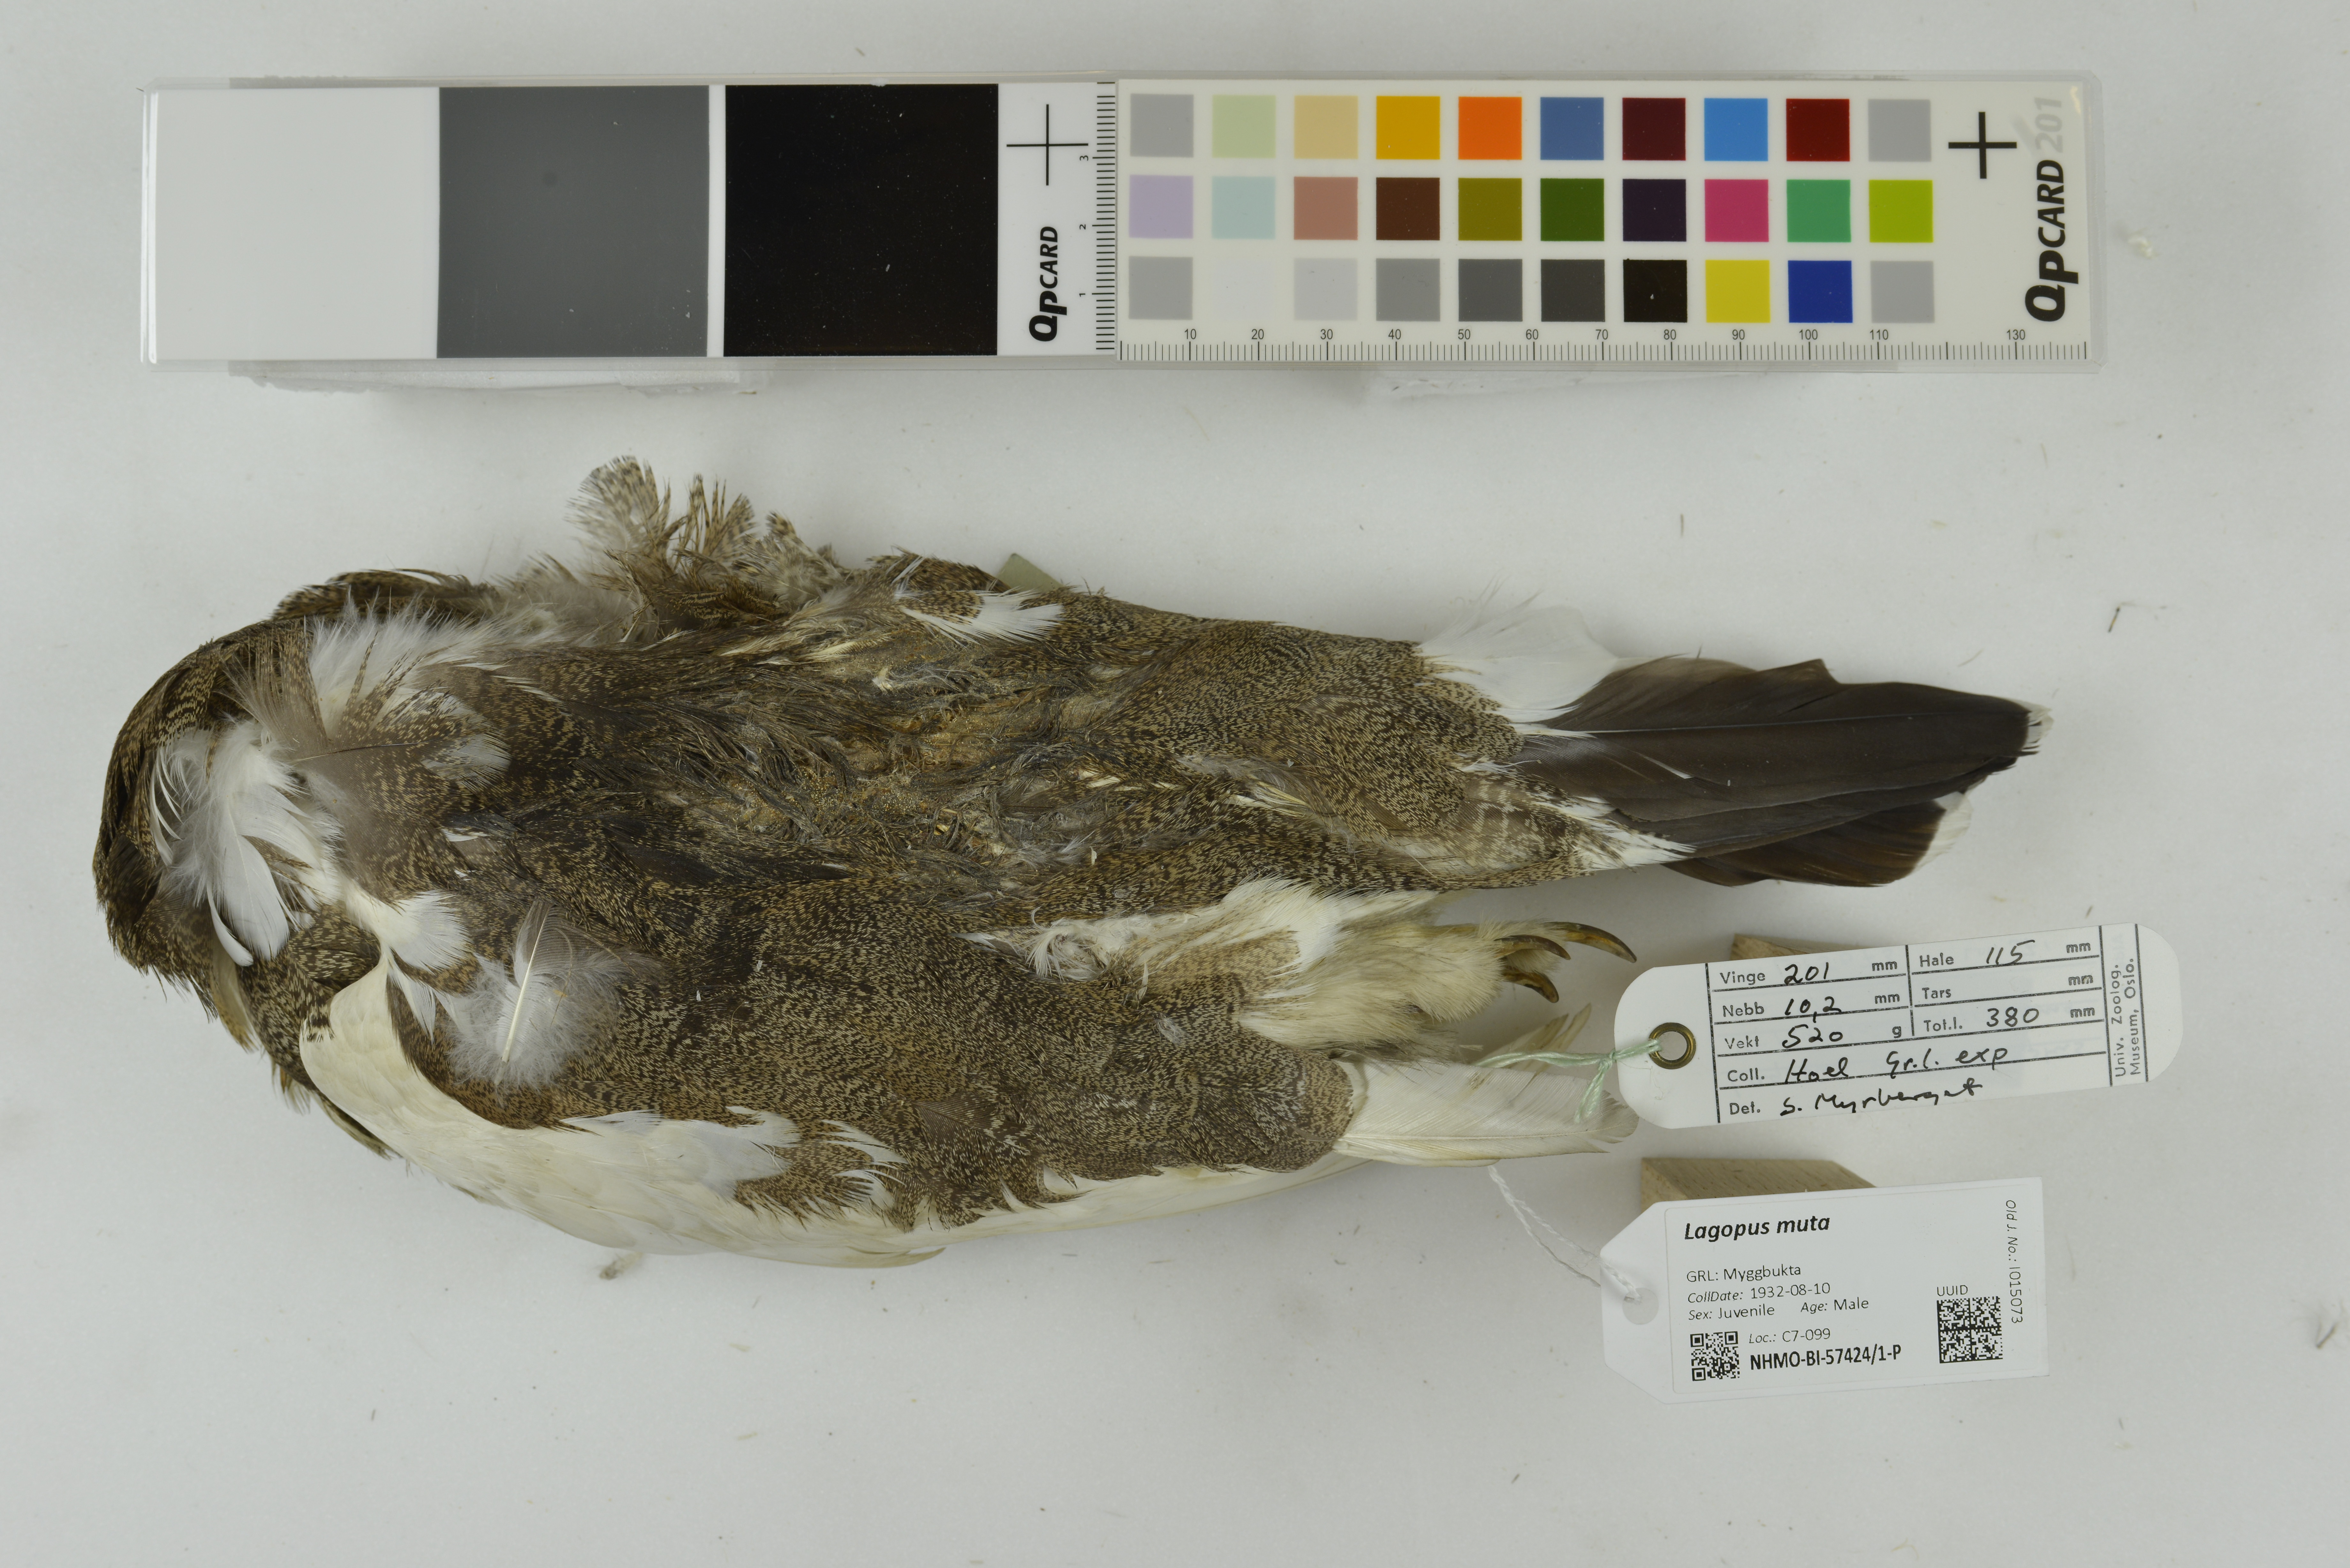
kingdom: Animalia
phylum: Chordata
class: Aves
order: Galliformes
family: Phasianidae
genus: Lagopus
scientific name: Lagopus muta
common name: Rock ptarmigan
